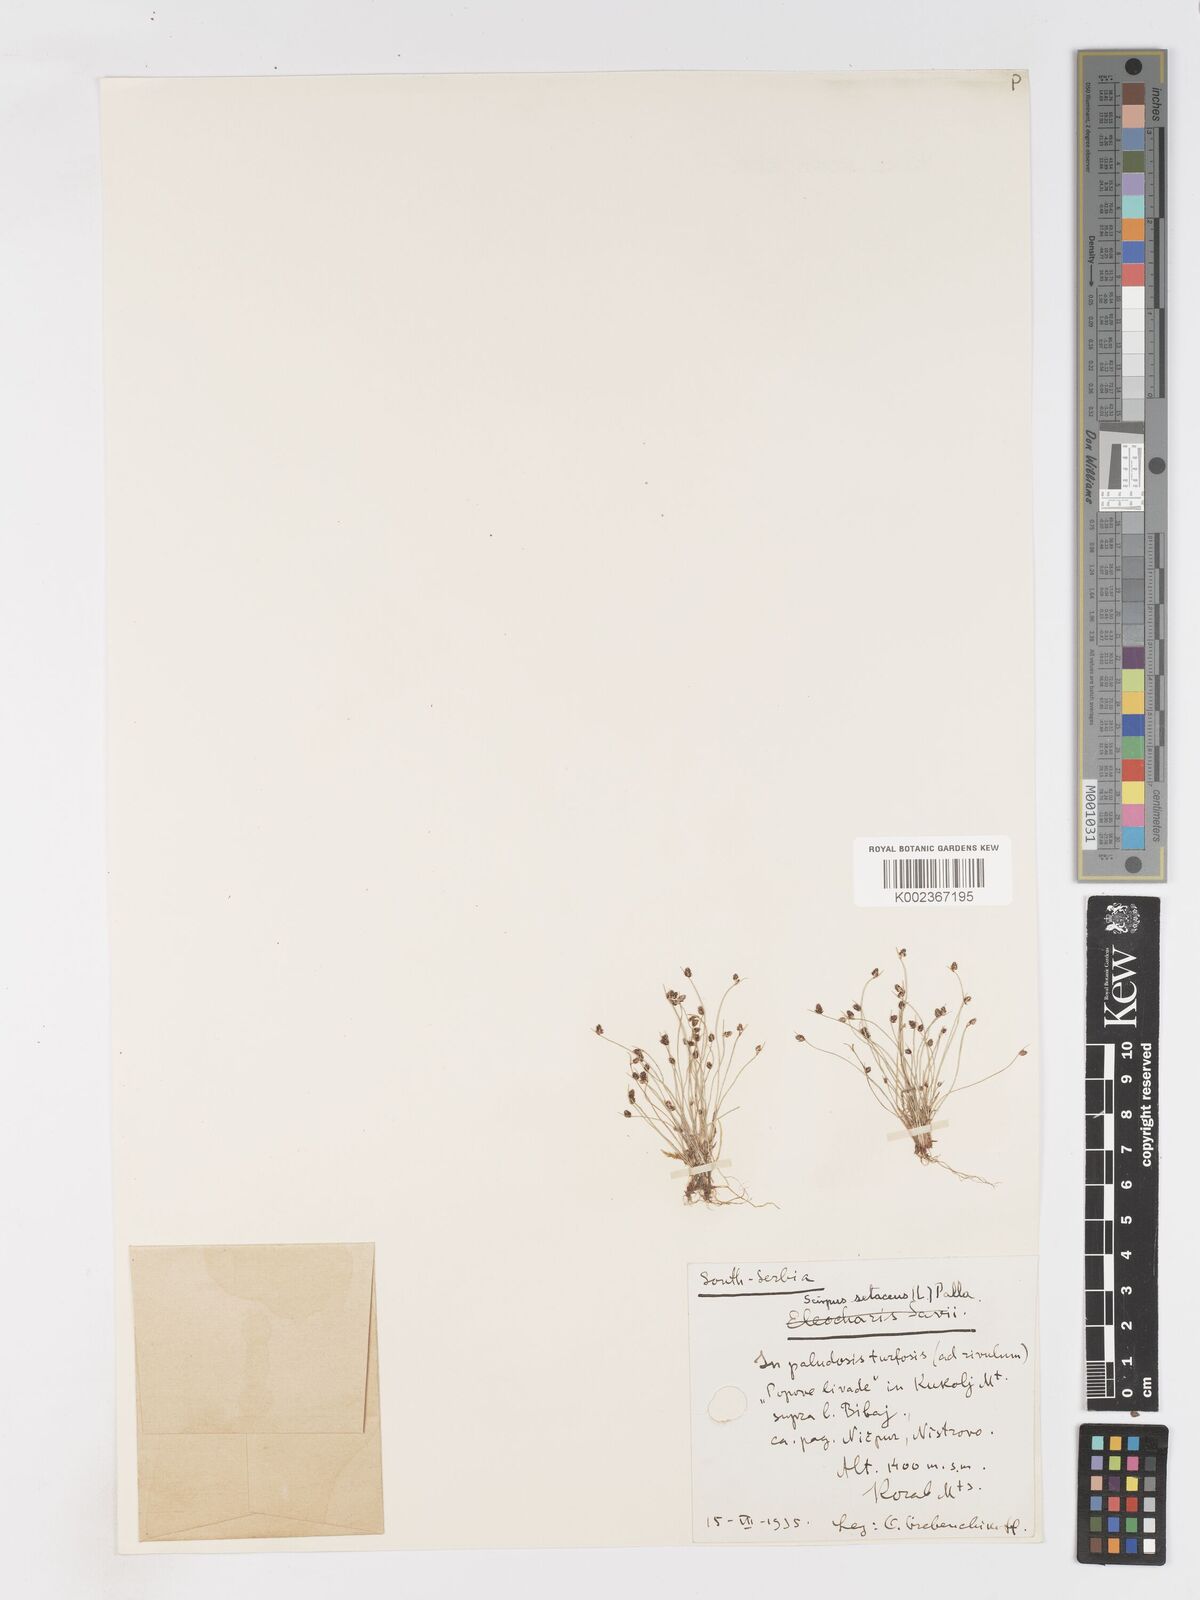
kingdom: Plantae
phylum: Tracheophyta
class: Liliopsida
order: Poales
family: Cyperaceae
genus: Isolepis
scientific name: Isolepis setacea
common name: Bristle club-rush
